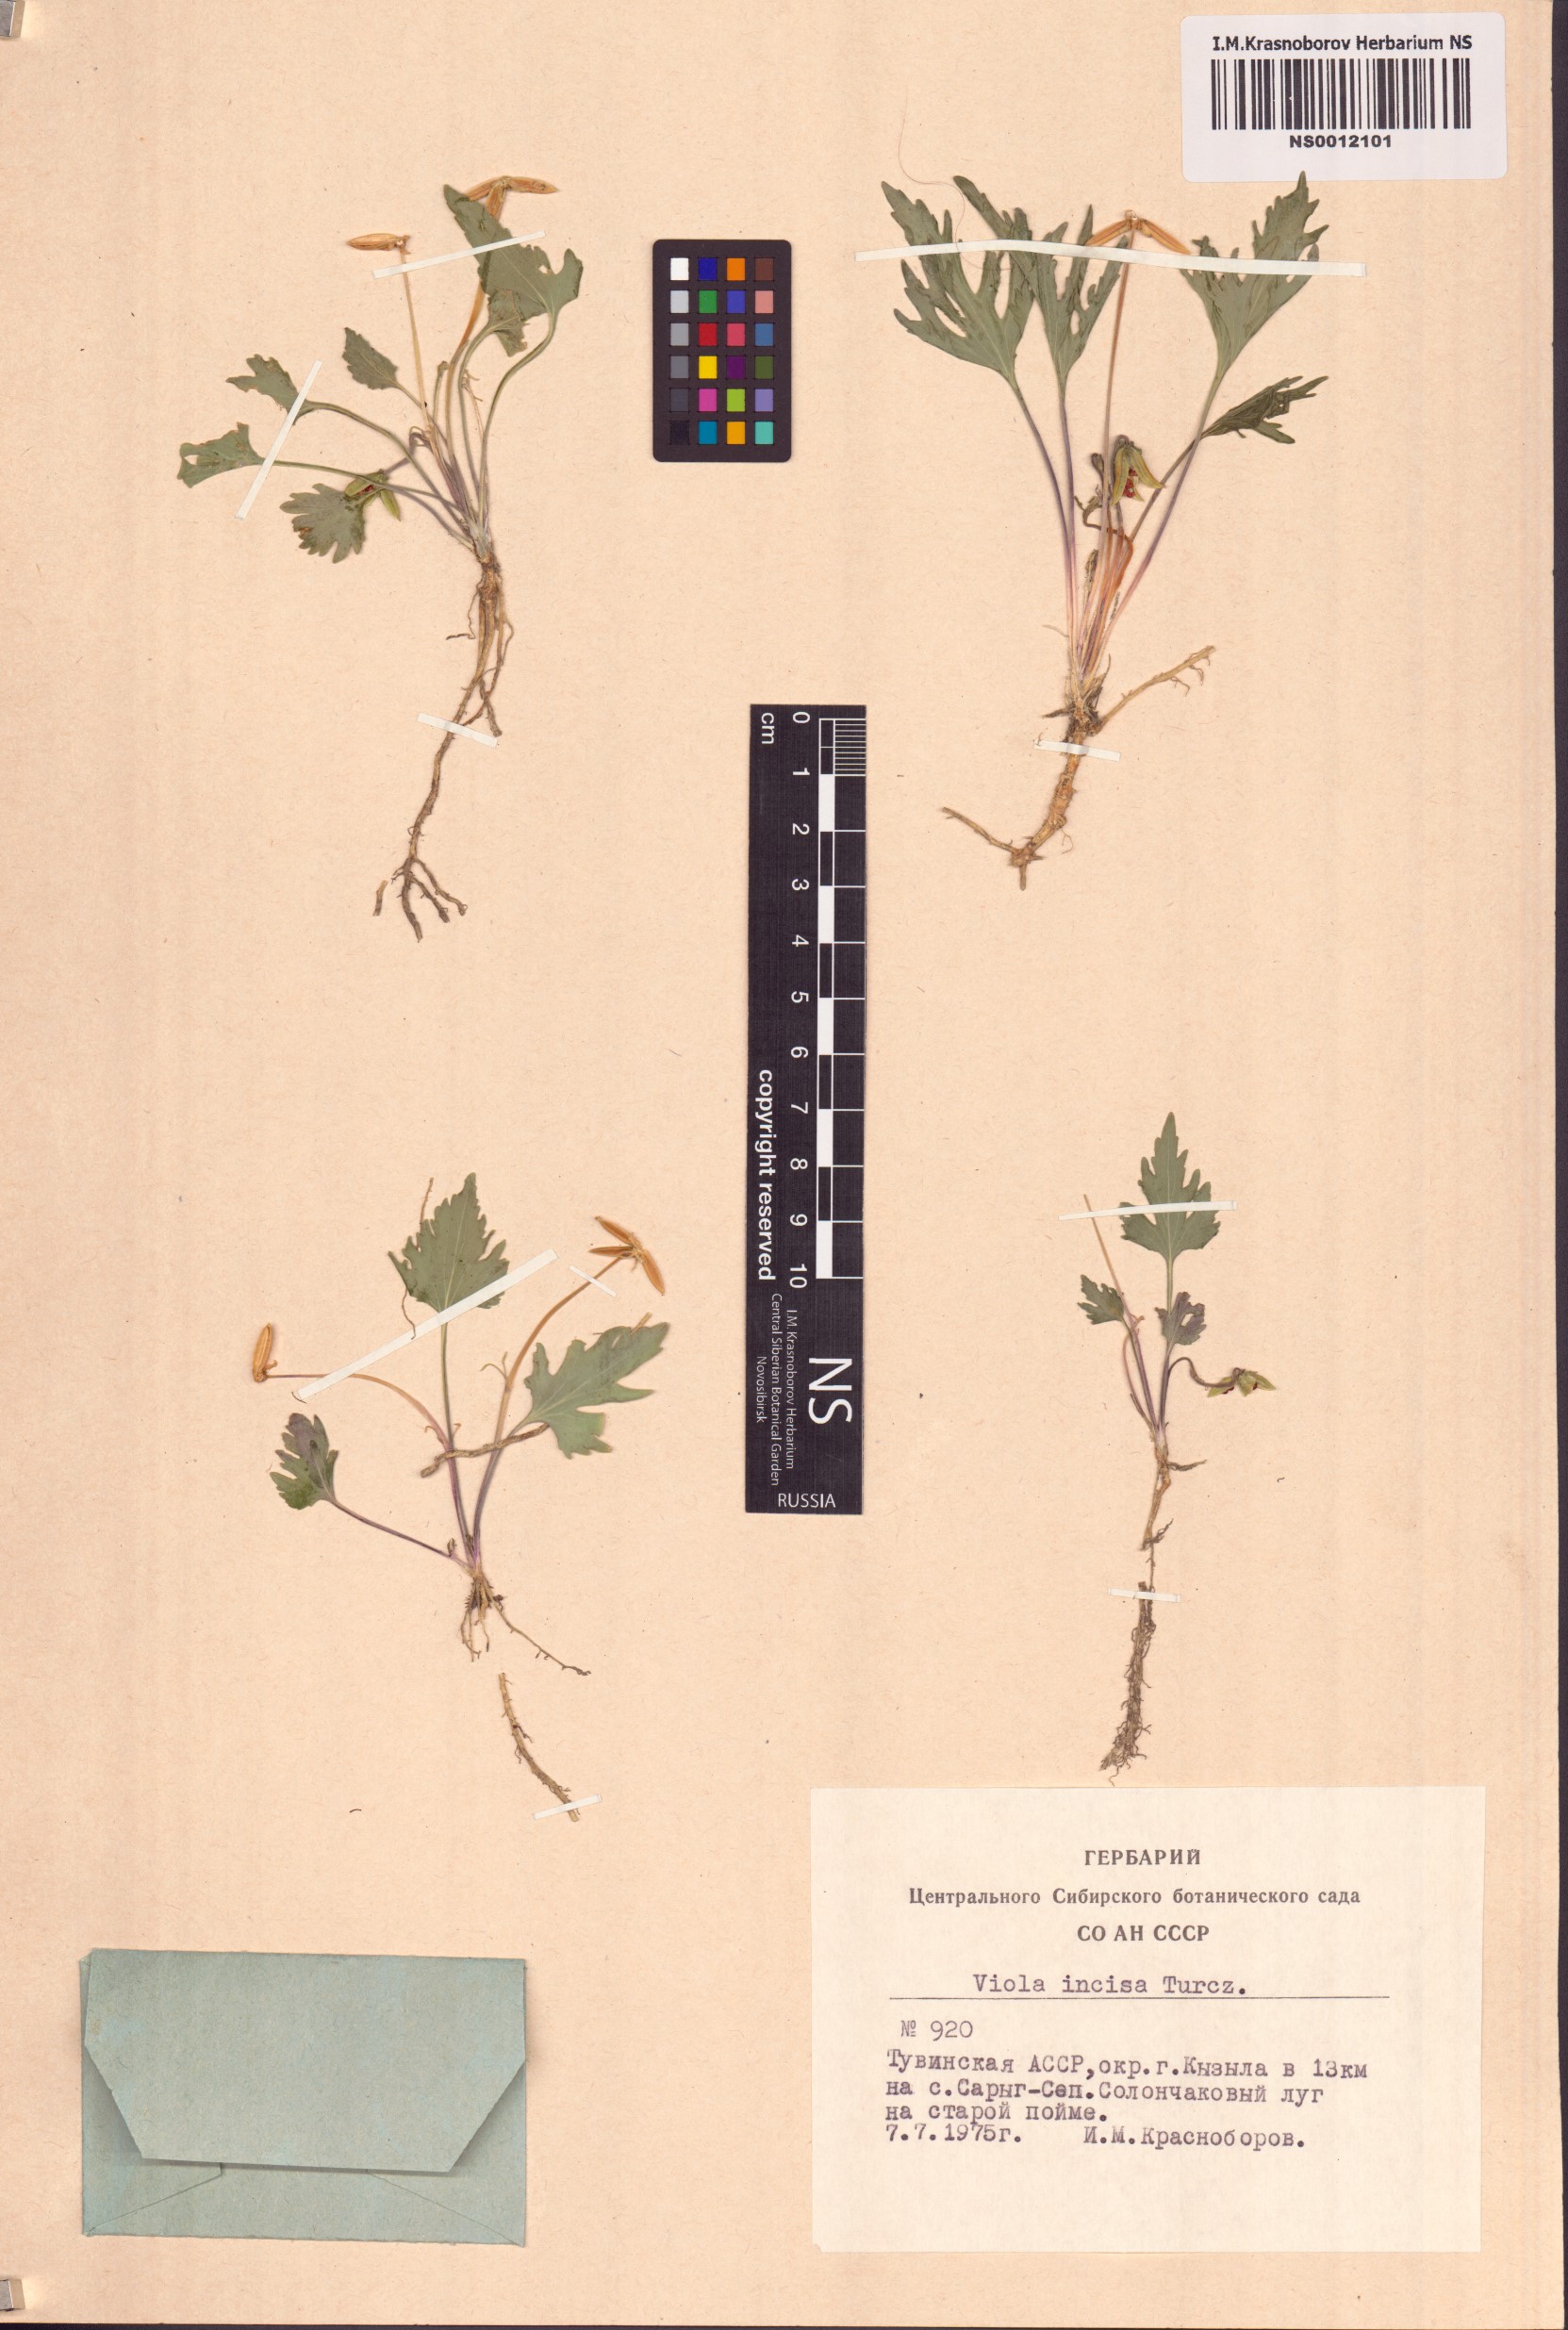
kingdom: Plantae
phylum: Tracheophyta
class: Magnoliopsida
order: Malpighiales
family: Violaceae
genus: Viola
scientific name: Viola incisa
